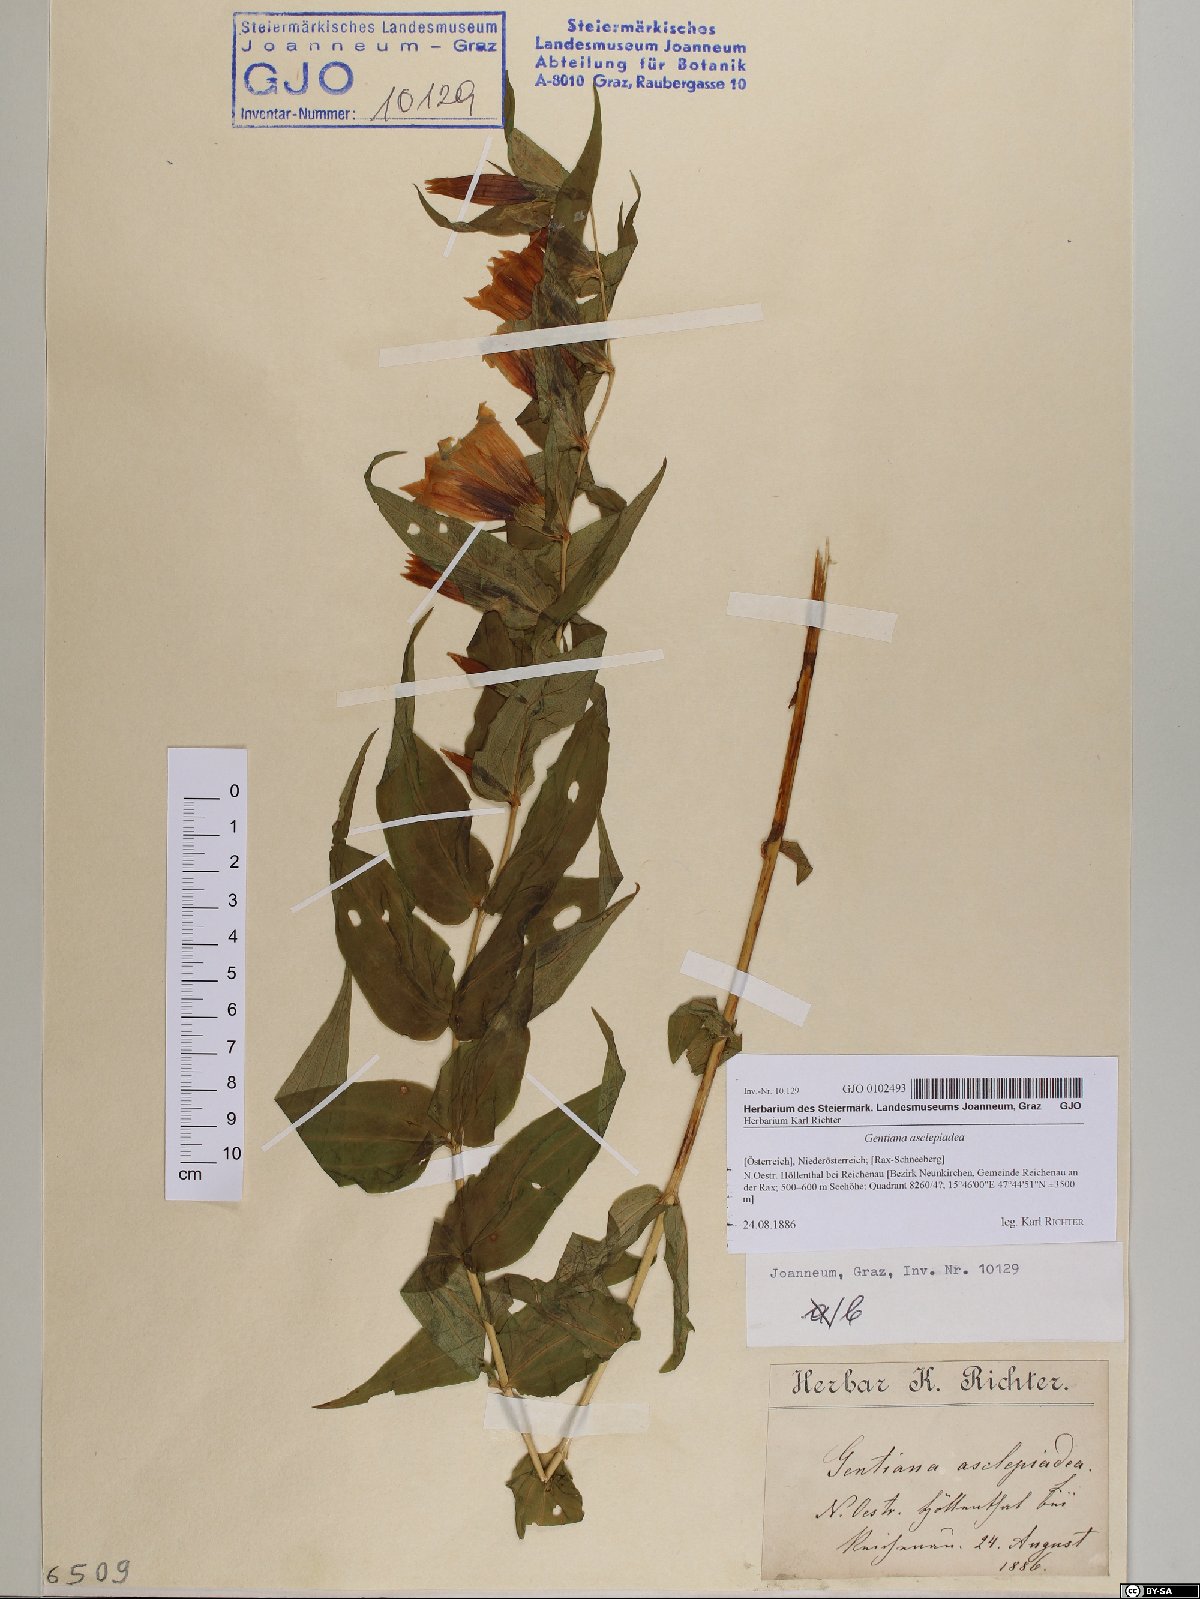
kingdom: Plantae
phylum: Tracheophyta
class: Magnoliopsida
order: Gentianales
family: Gentianaceae
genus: Gentiana
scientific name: Gentiana asclepiadea
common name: Willow gentian
